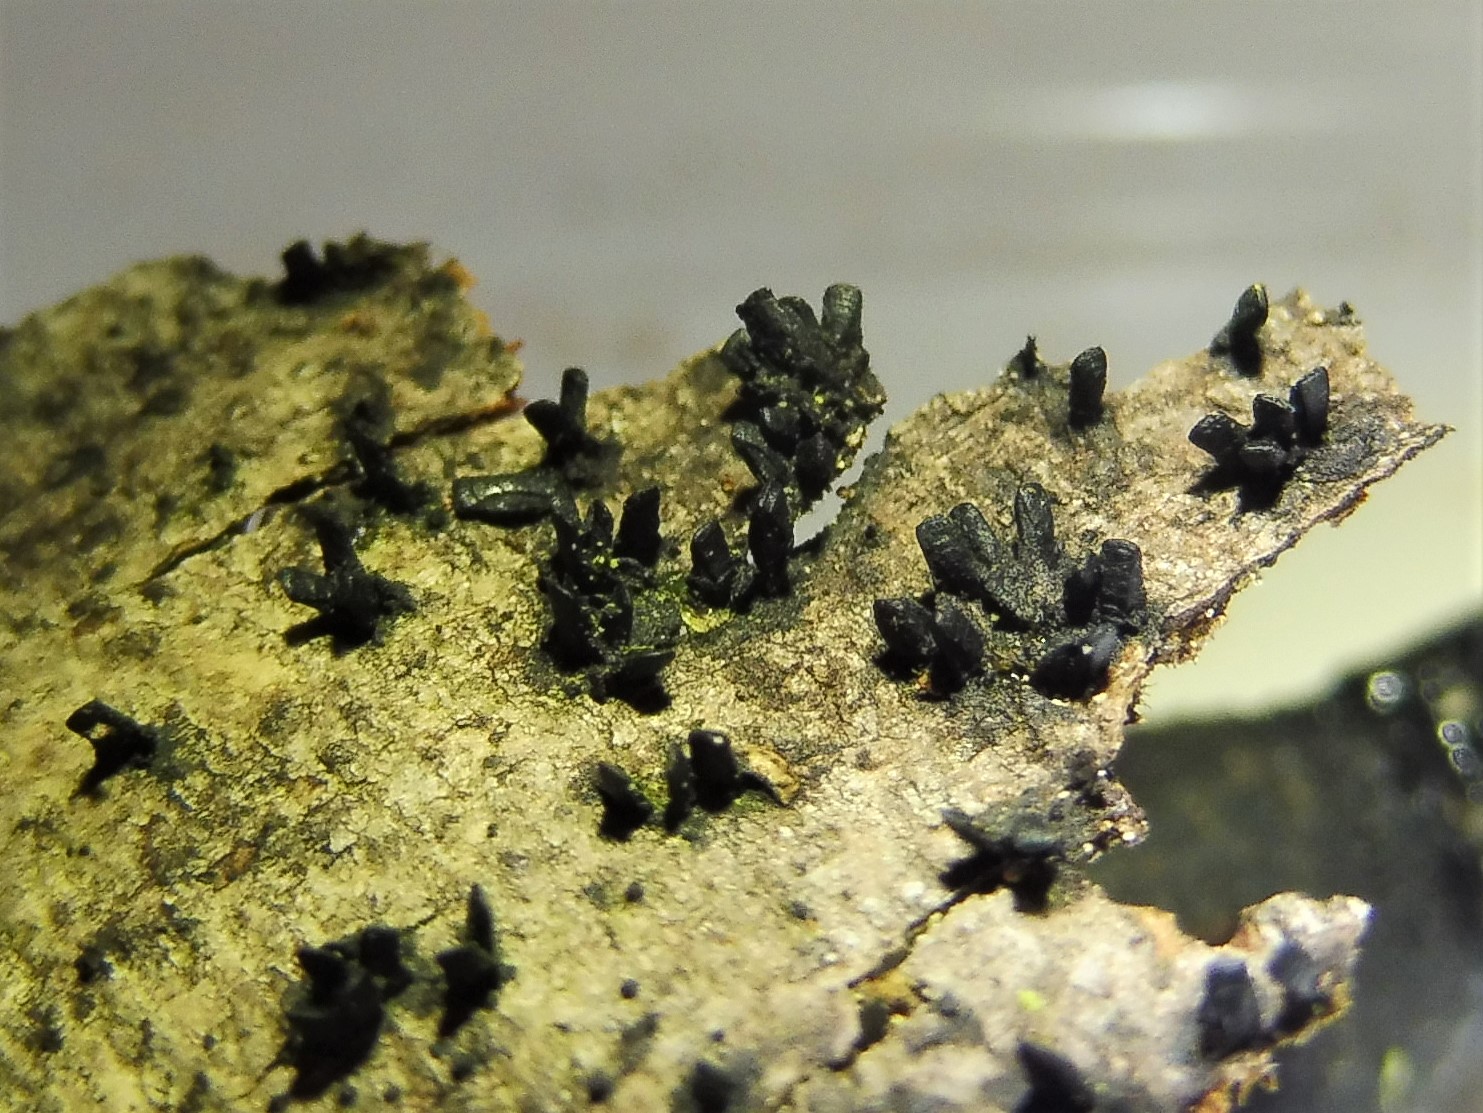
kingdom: Fungi
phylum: Ascomycota
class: Eurotiomycetes
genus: Glyphium
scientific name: Glyphium elatum
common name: kuløkse
